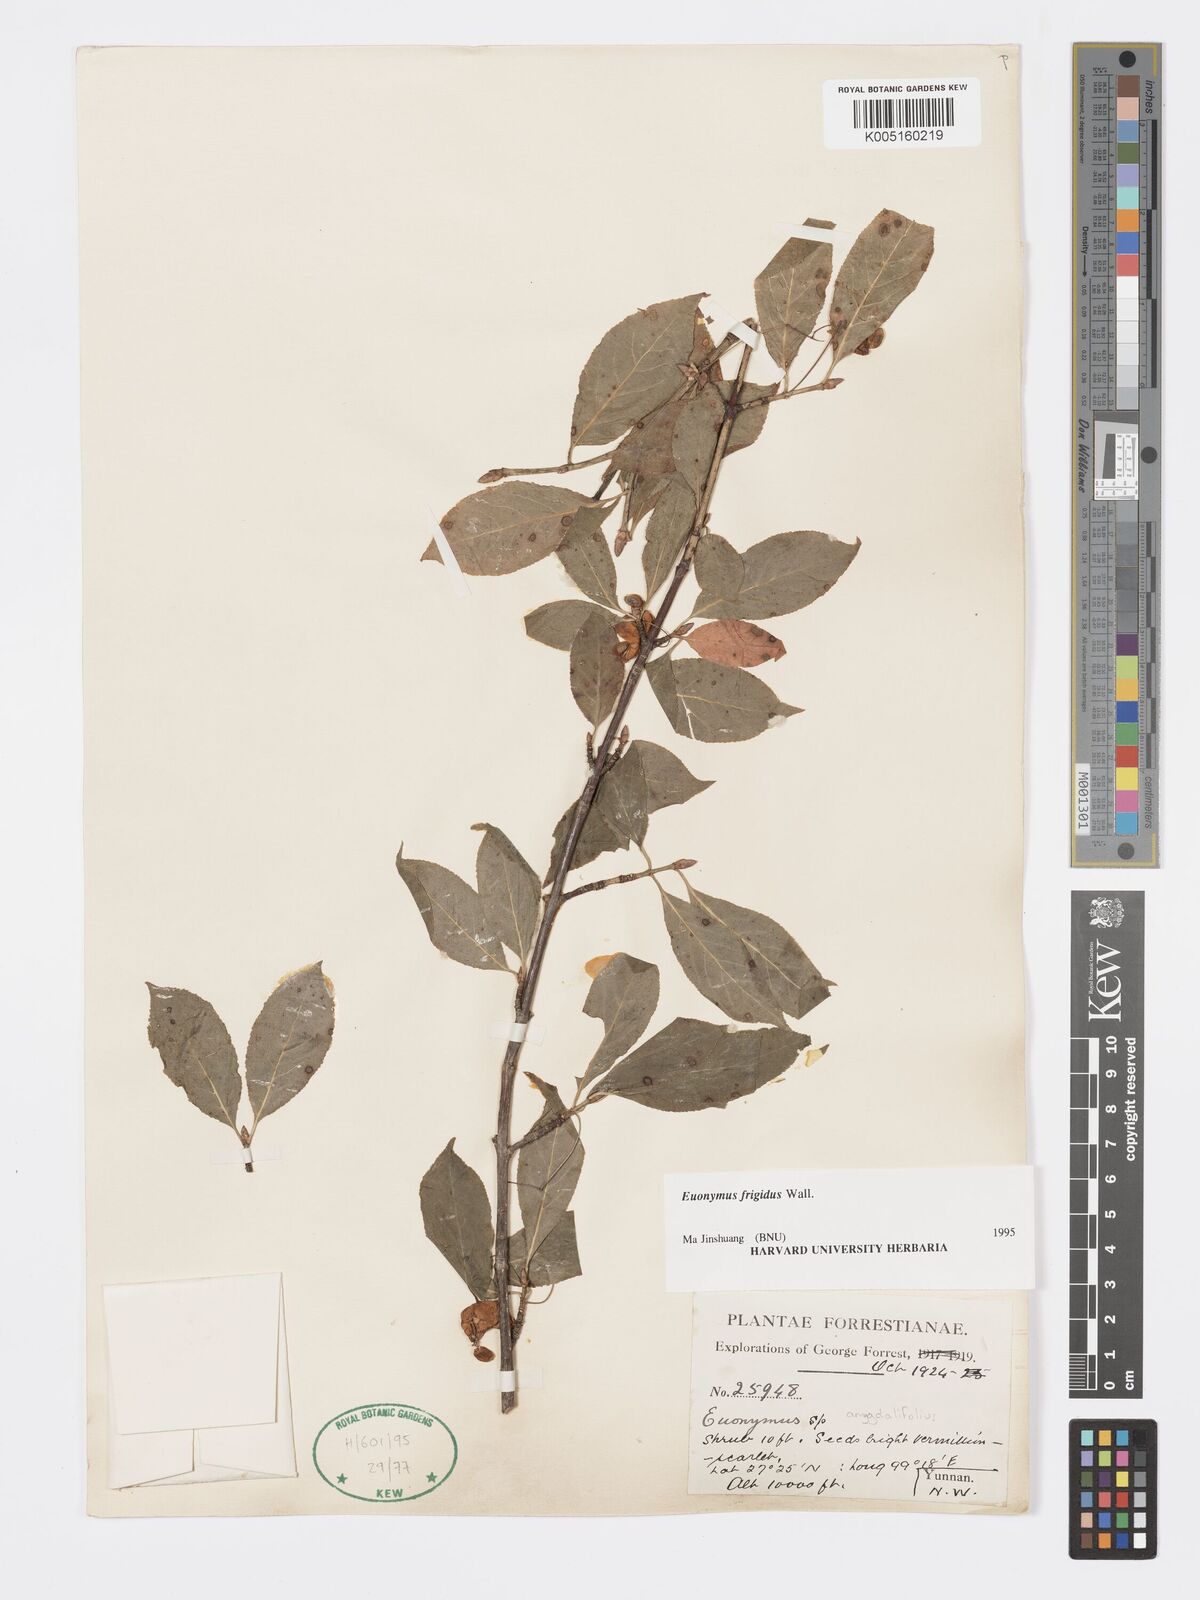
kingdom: Plantae
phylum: Tracheophyta
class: Magnoliopsida
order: Celastrales
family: Celastraceae
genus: Euonymus
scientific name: Euonymus frigidus
